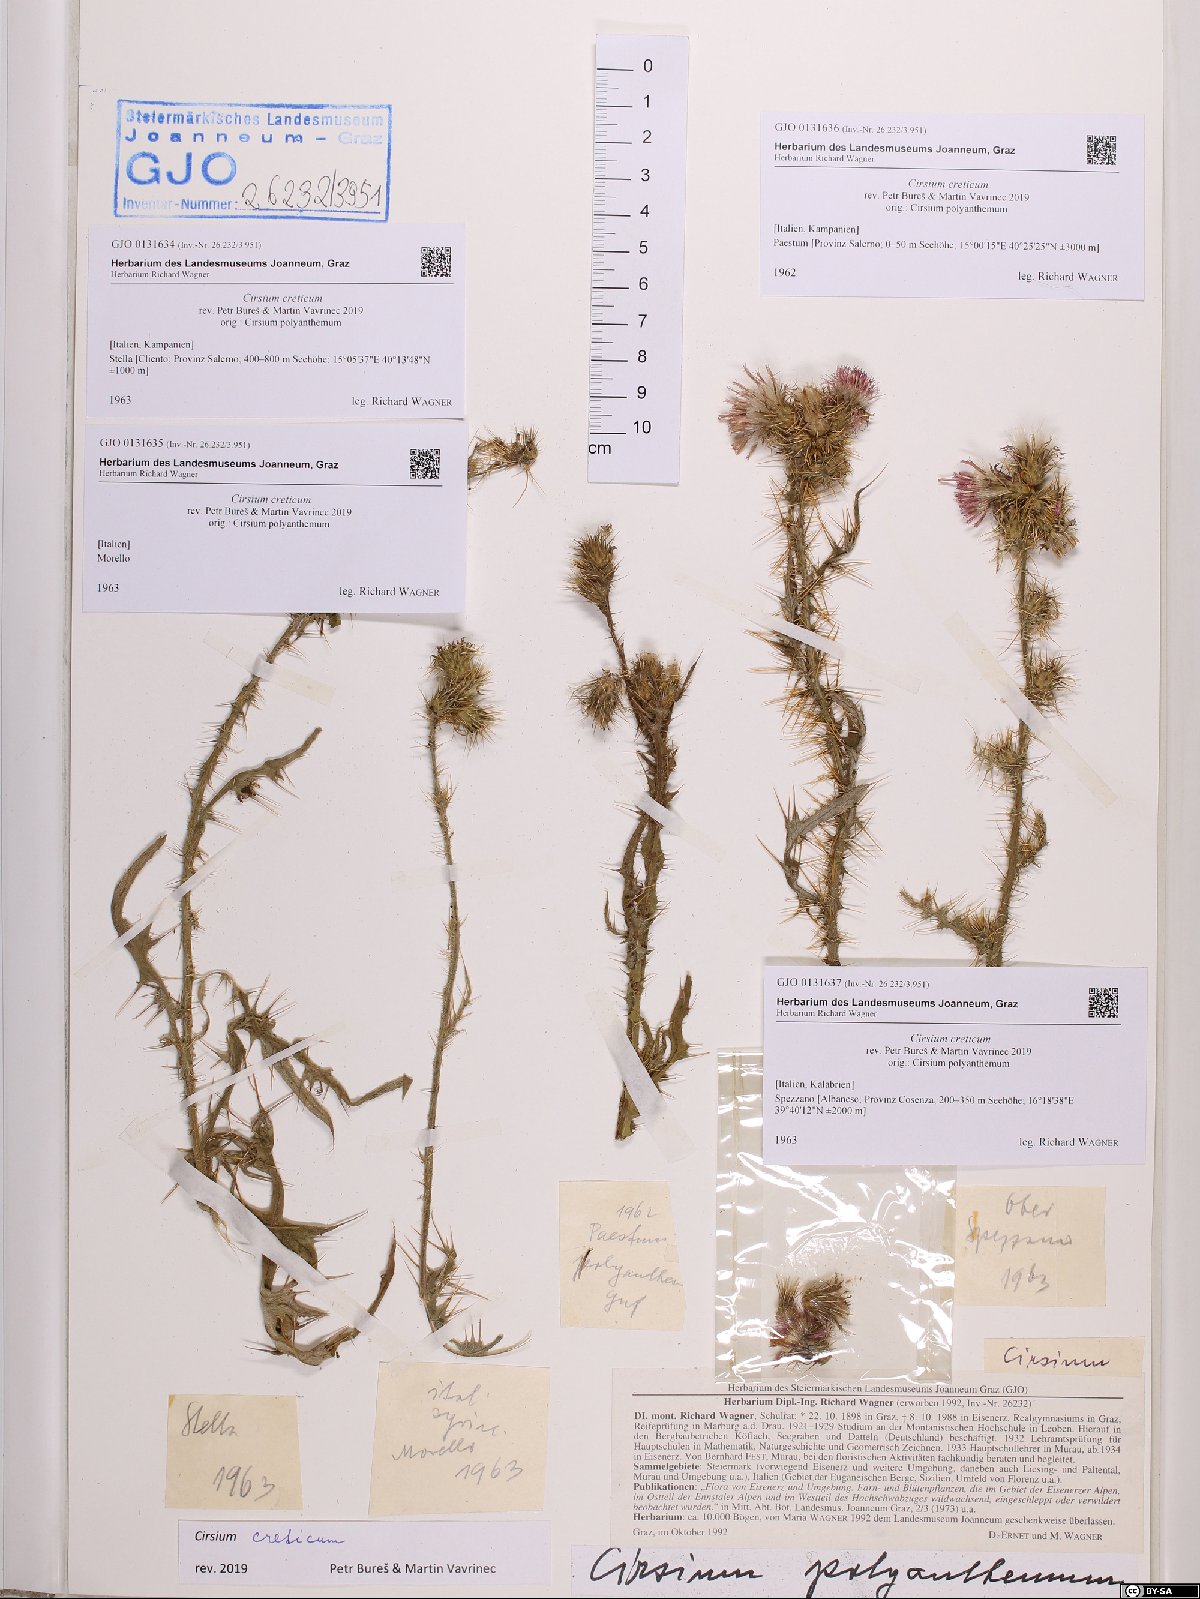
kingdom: Plantae
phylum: Tracheophyta
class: Magnoliopsida
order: Asterales
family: Asteraceae
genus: Cirsium
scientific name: Cirsium creticum
